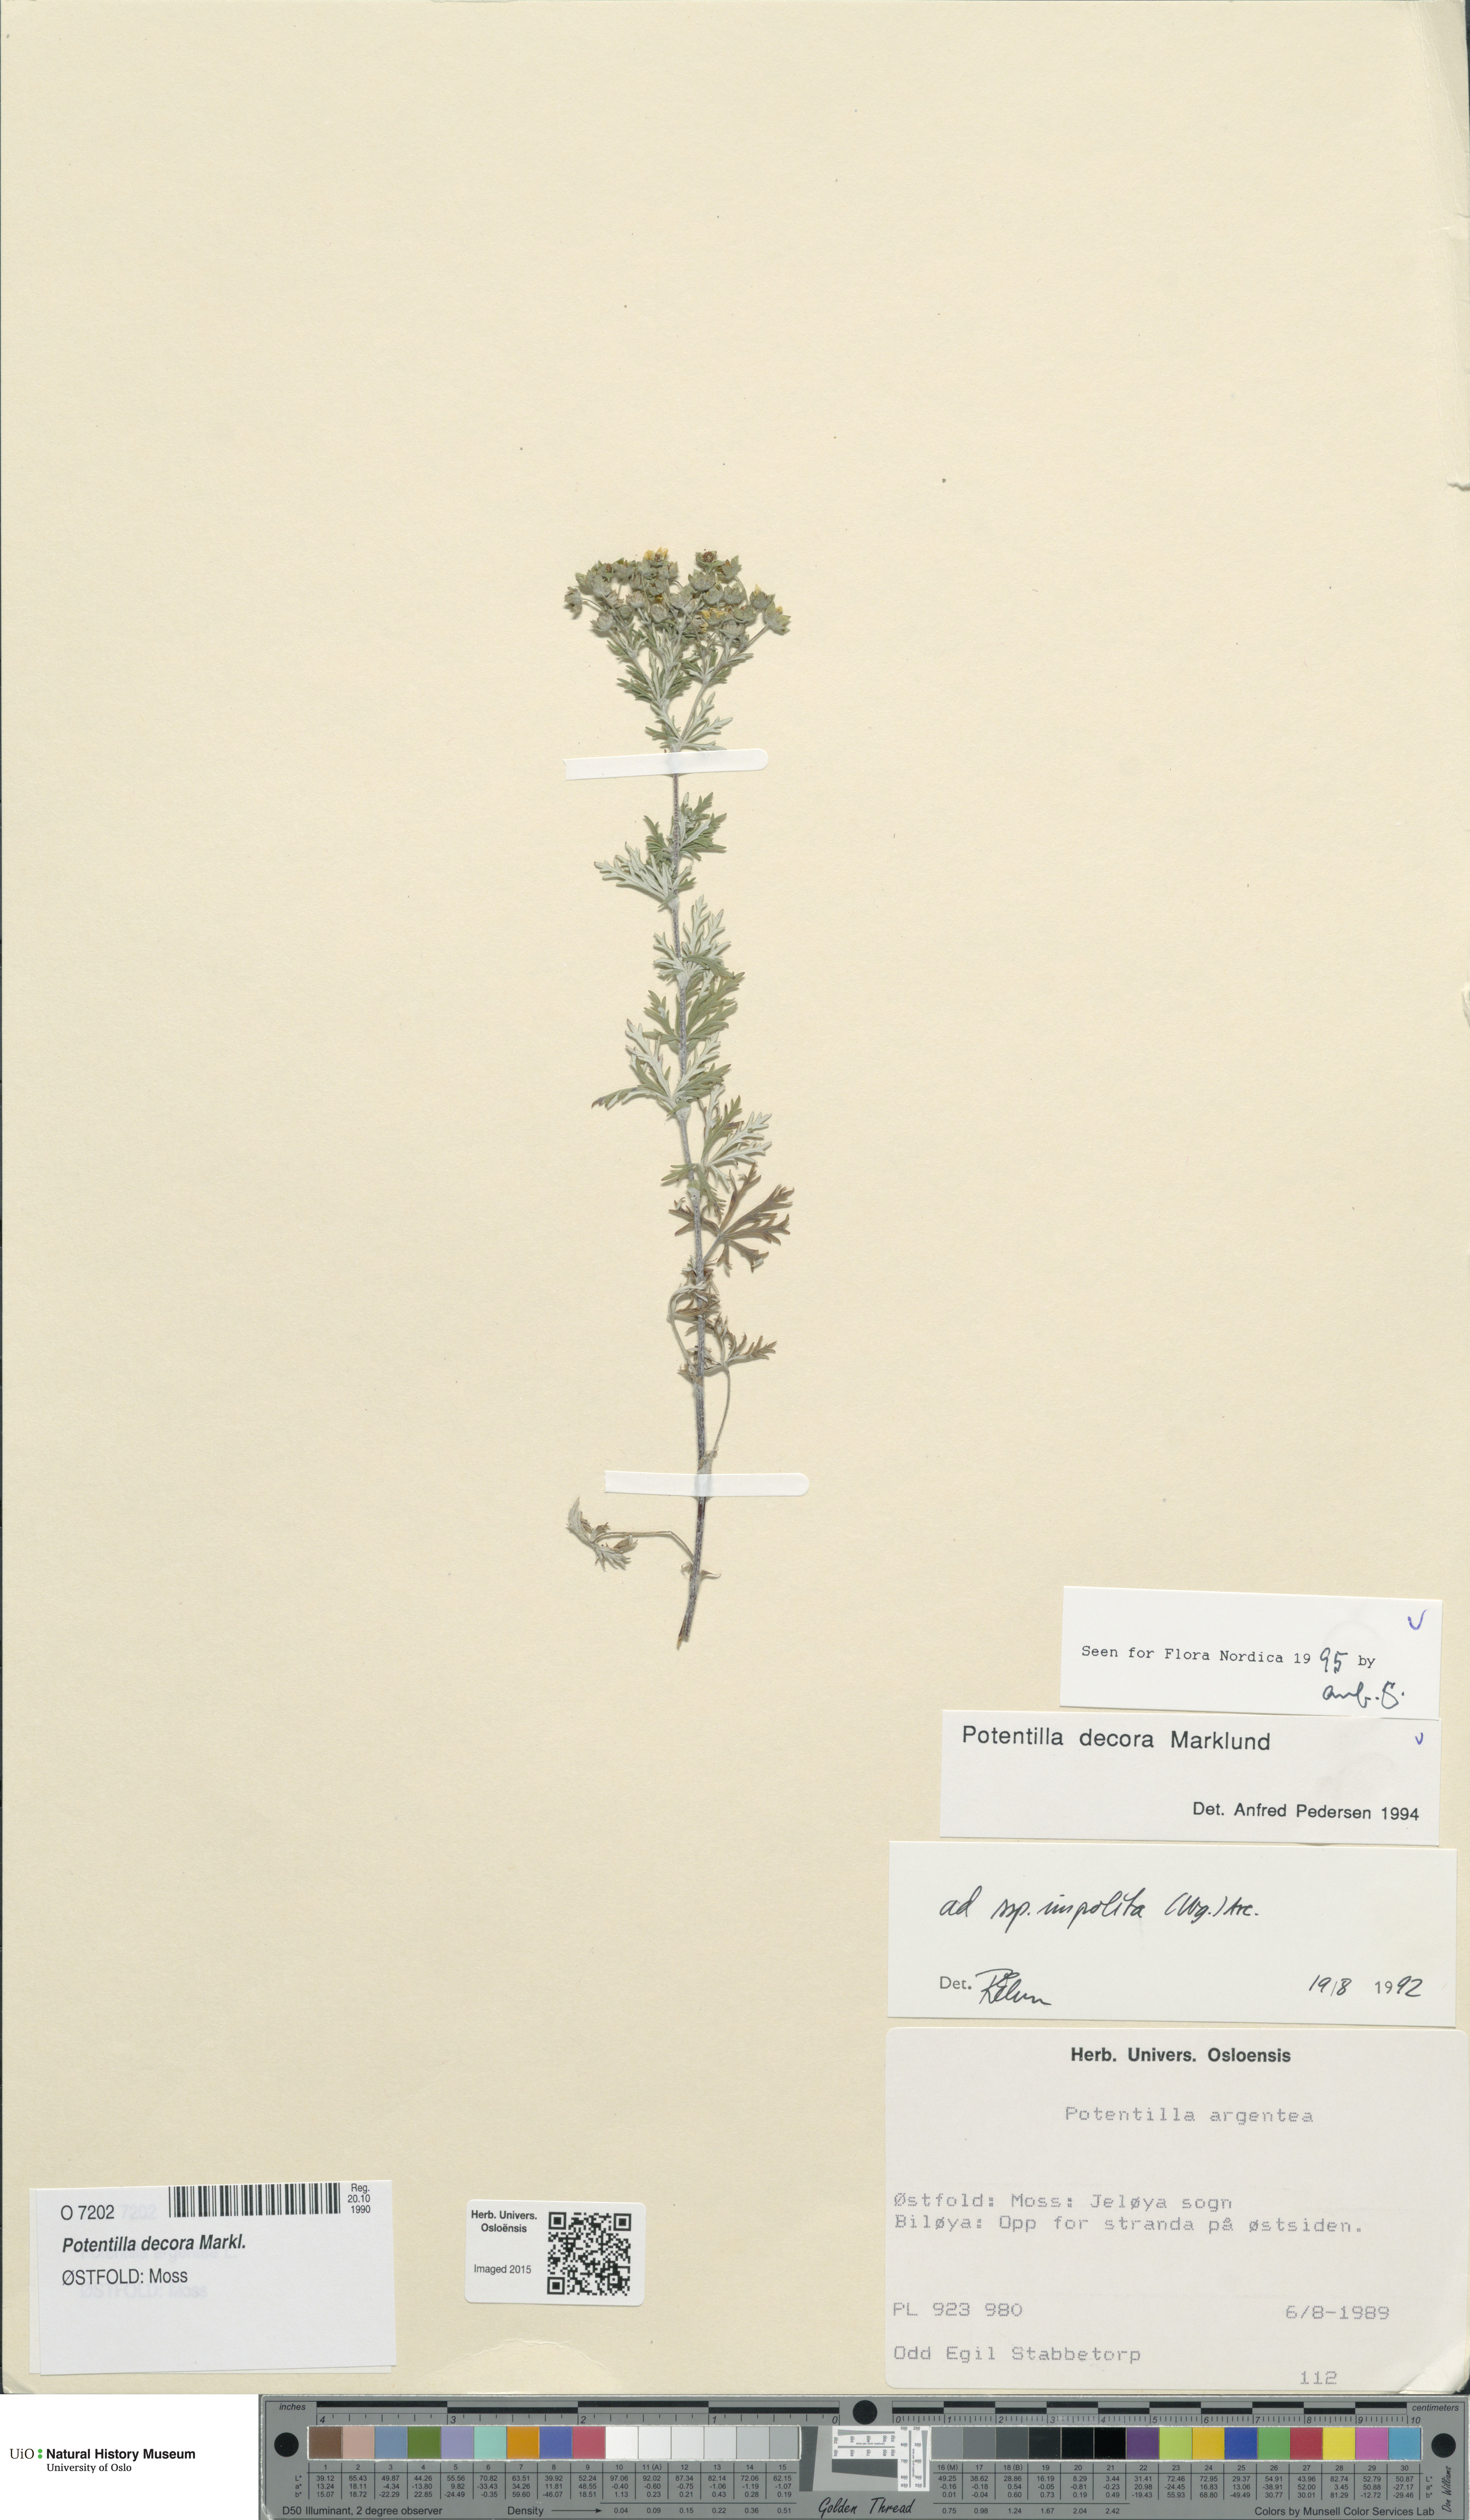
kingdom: Plantae
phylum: Tracheophyta
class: Magnoliopsida
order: Rosales
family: Rosaceae
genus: Potentilla
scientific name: Potentilla neglecta
